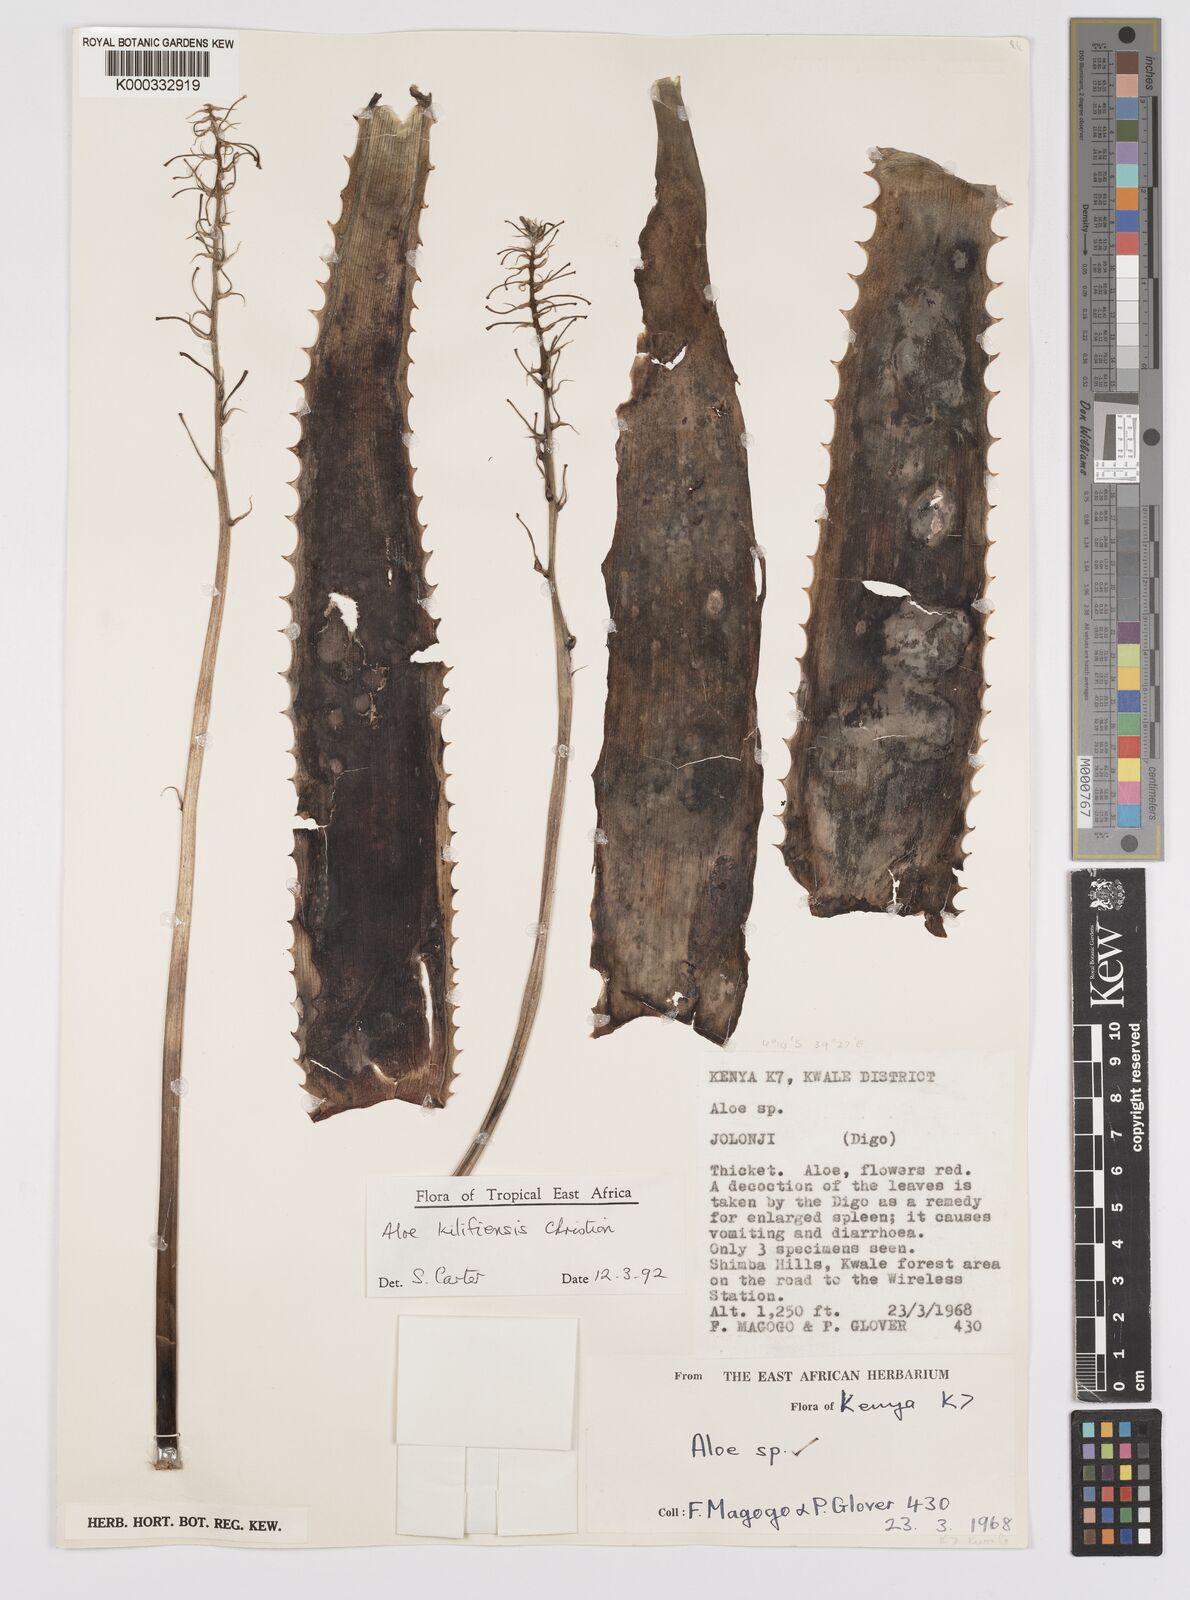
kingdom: Plantae
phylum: Tracheophyta
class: Liliopsida
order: Asparagales
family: Asphodelaceae
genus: Aloe
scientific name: Aloe kilifiensis
